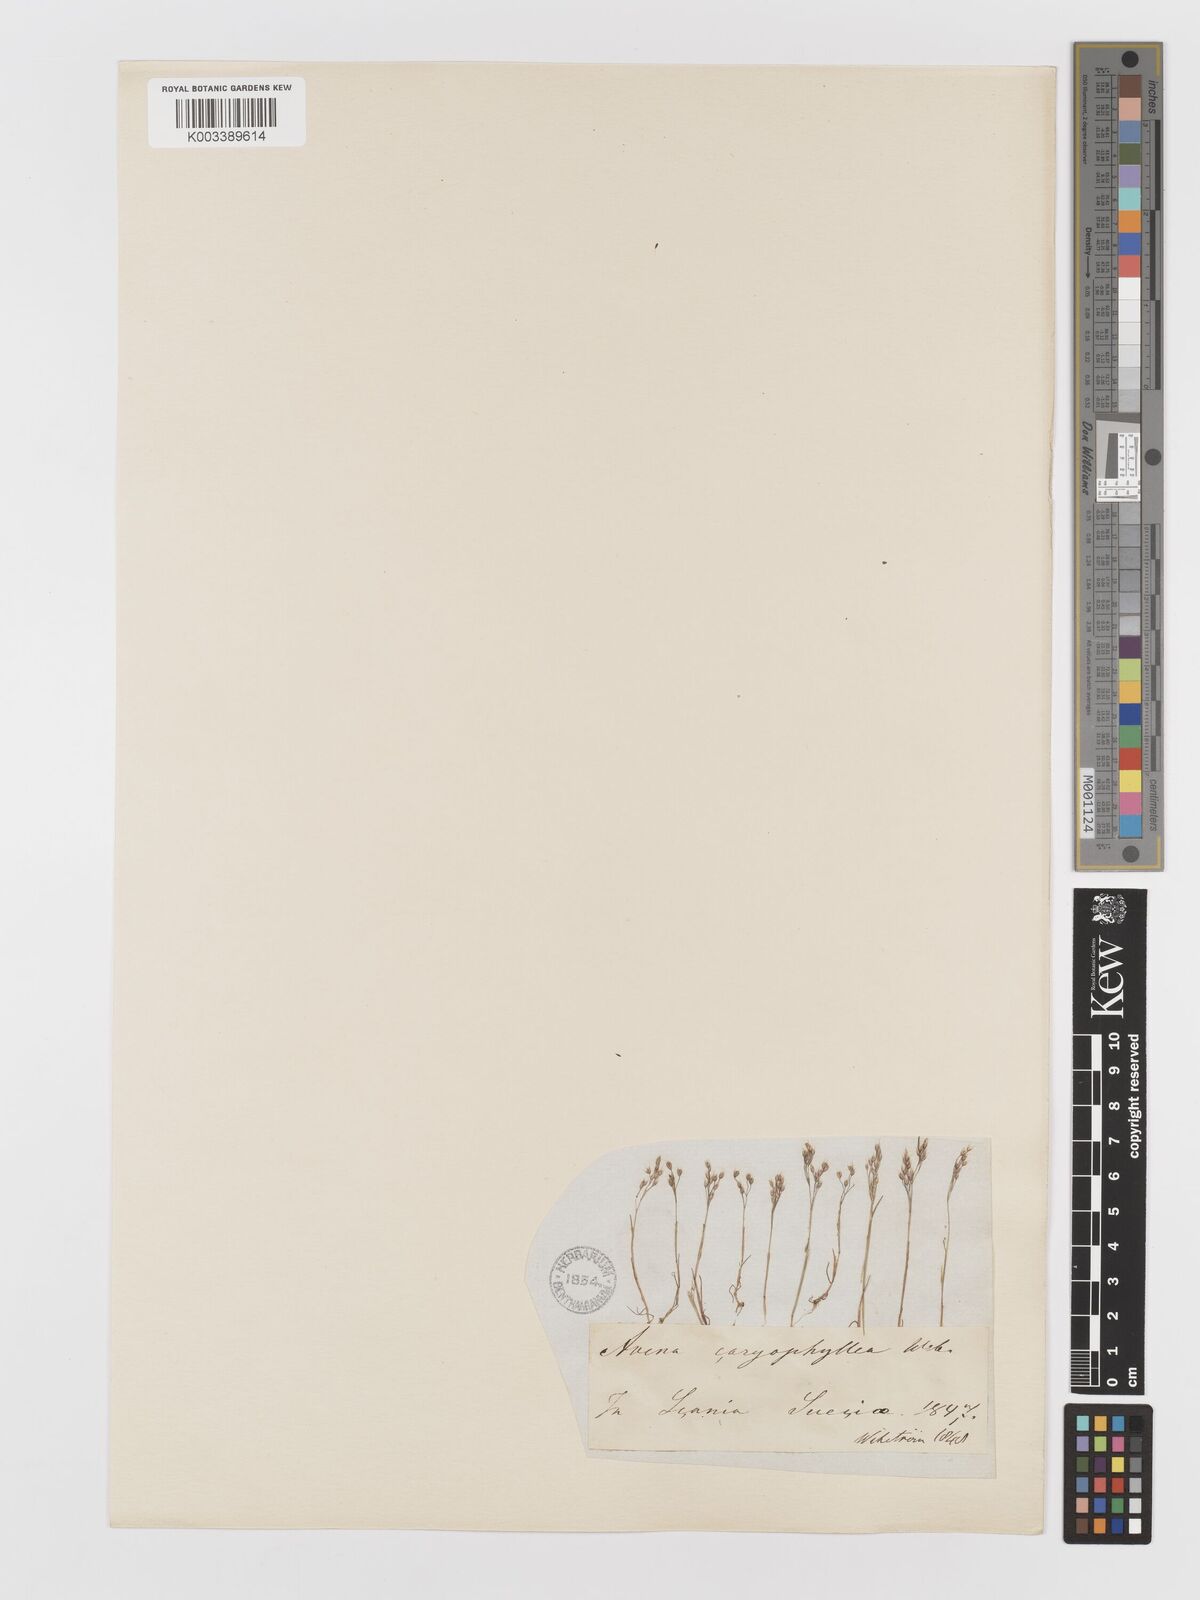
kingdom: Plantae
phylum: Tracheophyta
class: Liliopsida
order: Poales
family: Poaceae
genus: Aira
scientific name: Aira caryophyllea
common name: Silver hairgrass
